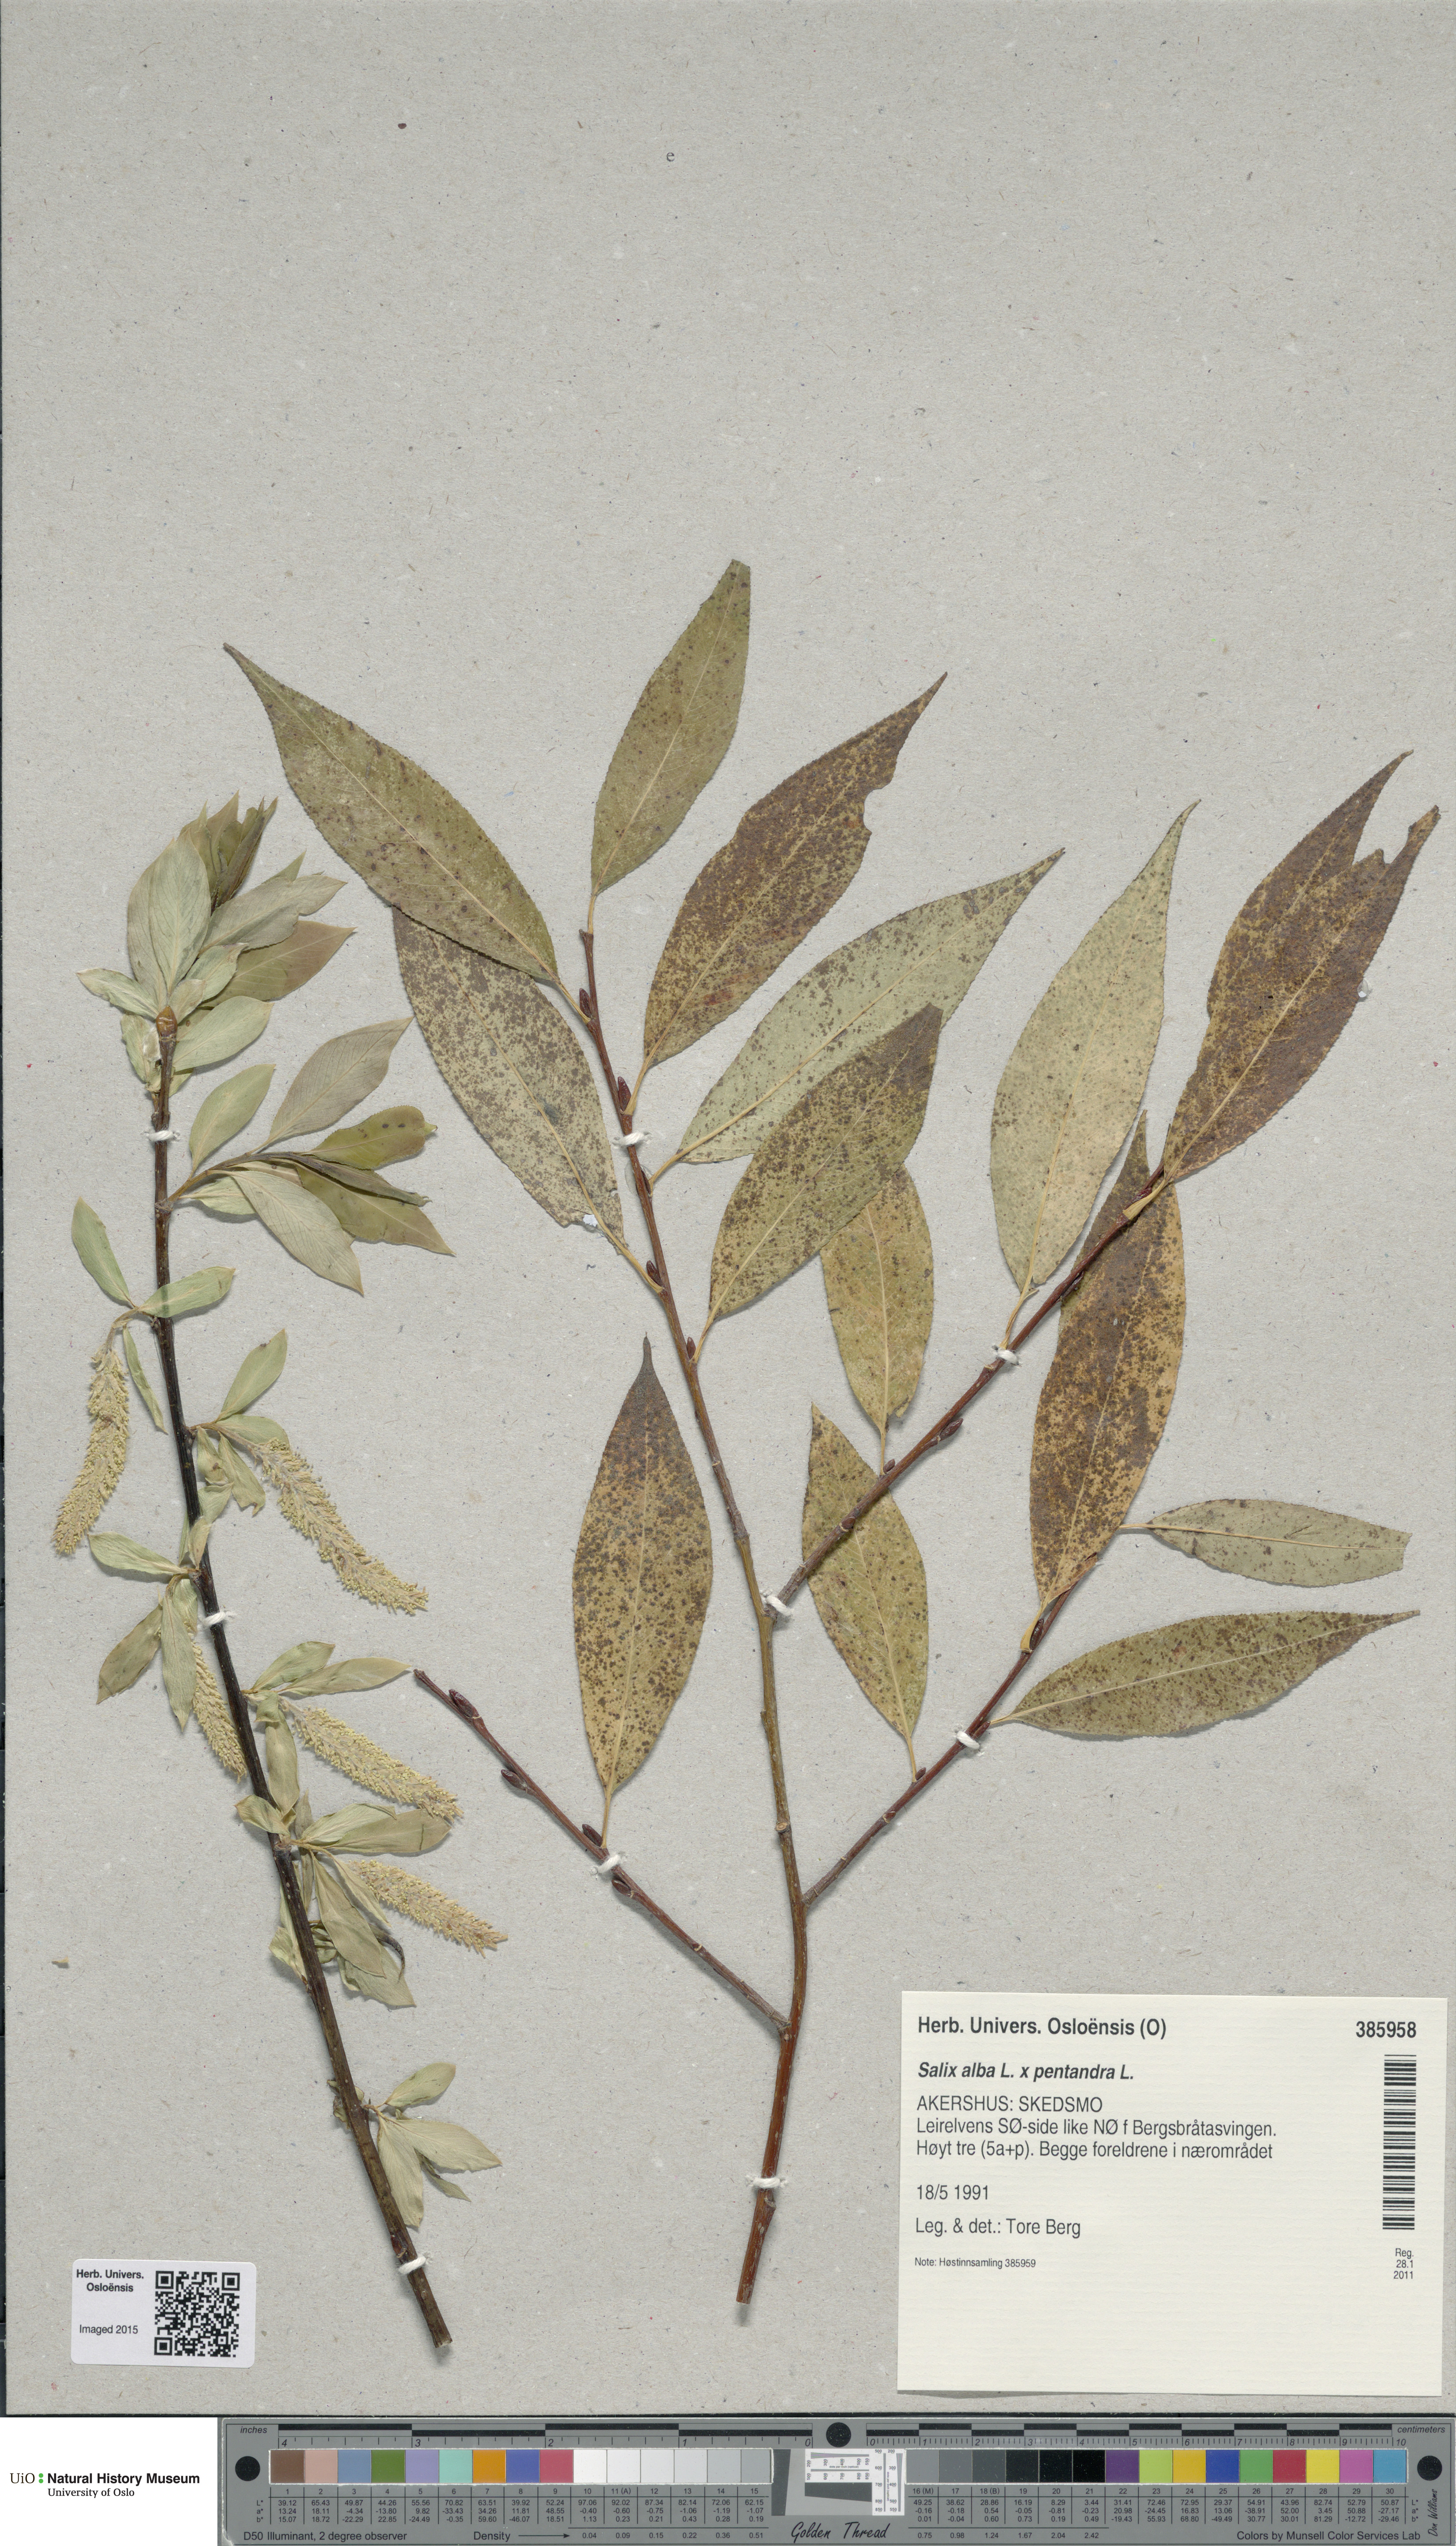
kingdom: Plantae
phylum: Tracheophyta
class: Magnoliopsida
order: Malpighiales
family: Salicaceae
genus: Salix
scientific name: Salix
